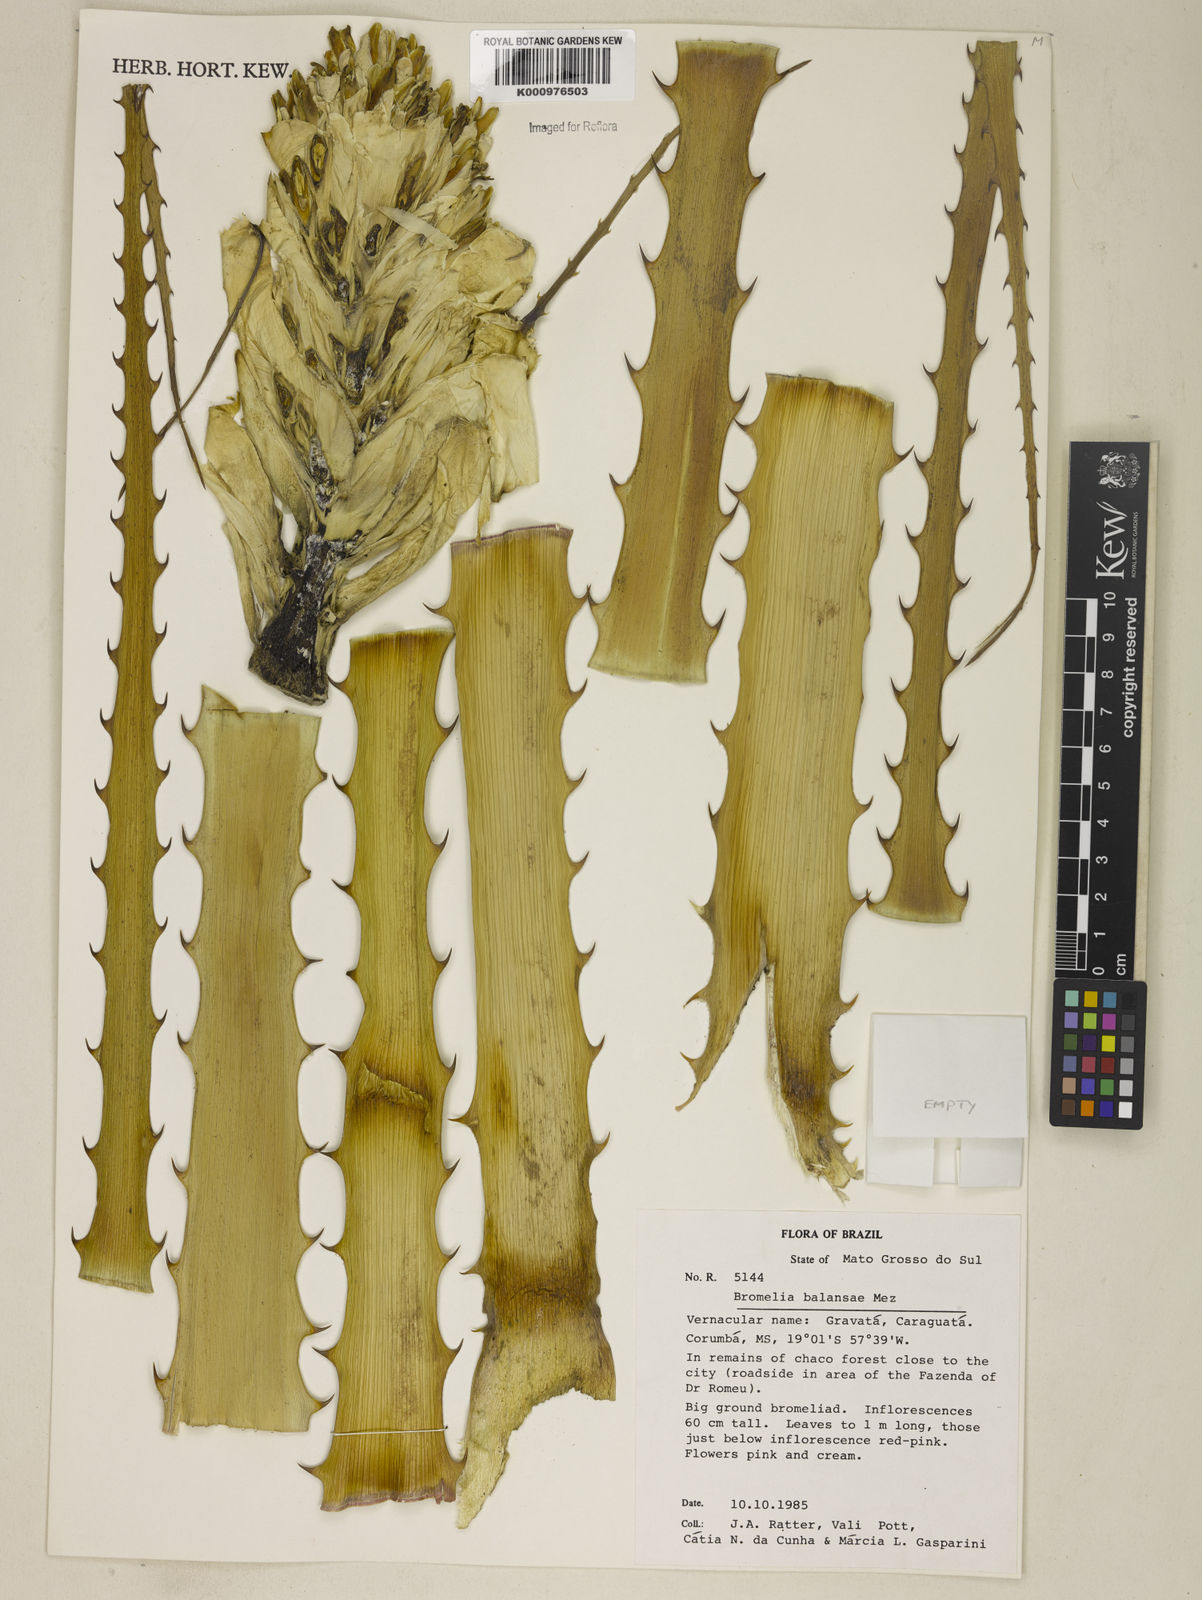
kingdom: Plantae
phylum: Tracheophyta
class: Liliopsida
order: Poales
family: Bromeliaceae
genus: Bromelia
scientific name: Bromelia balansae
